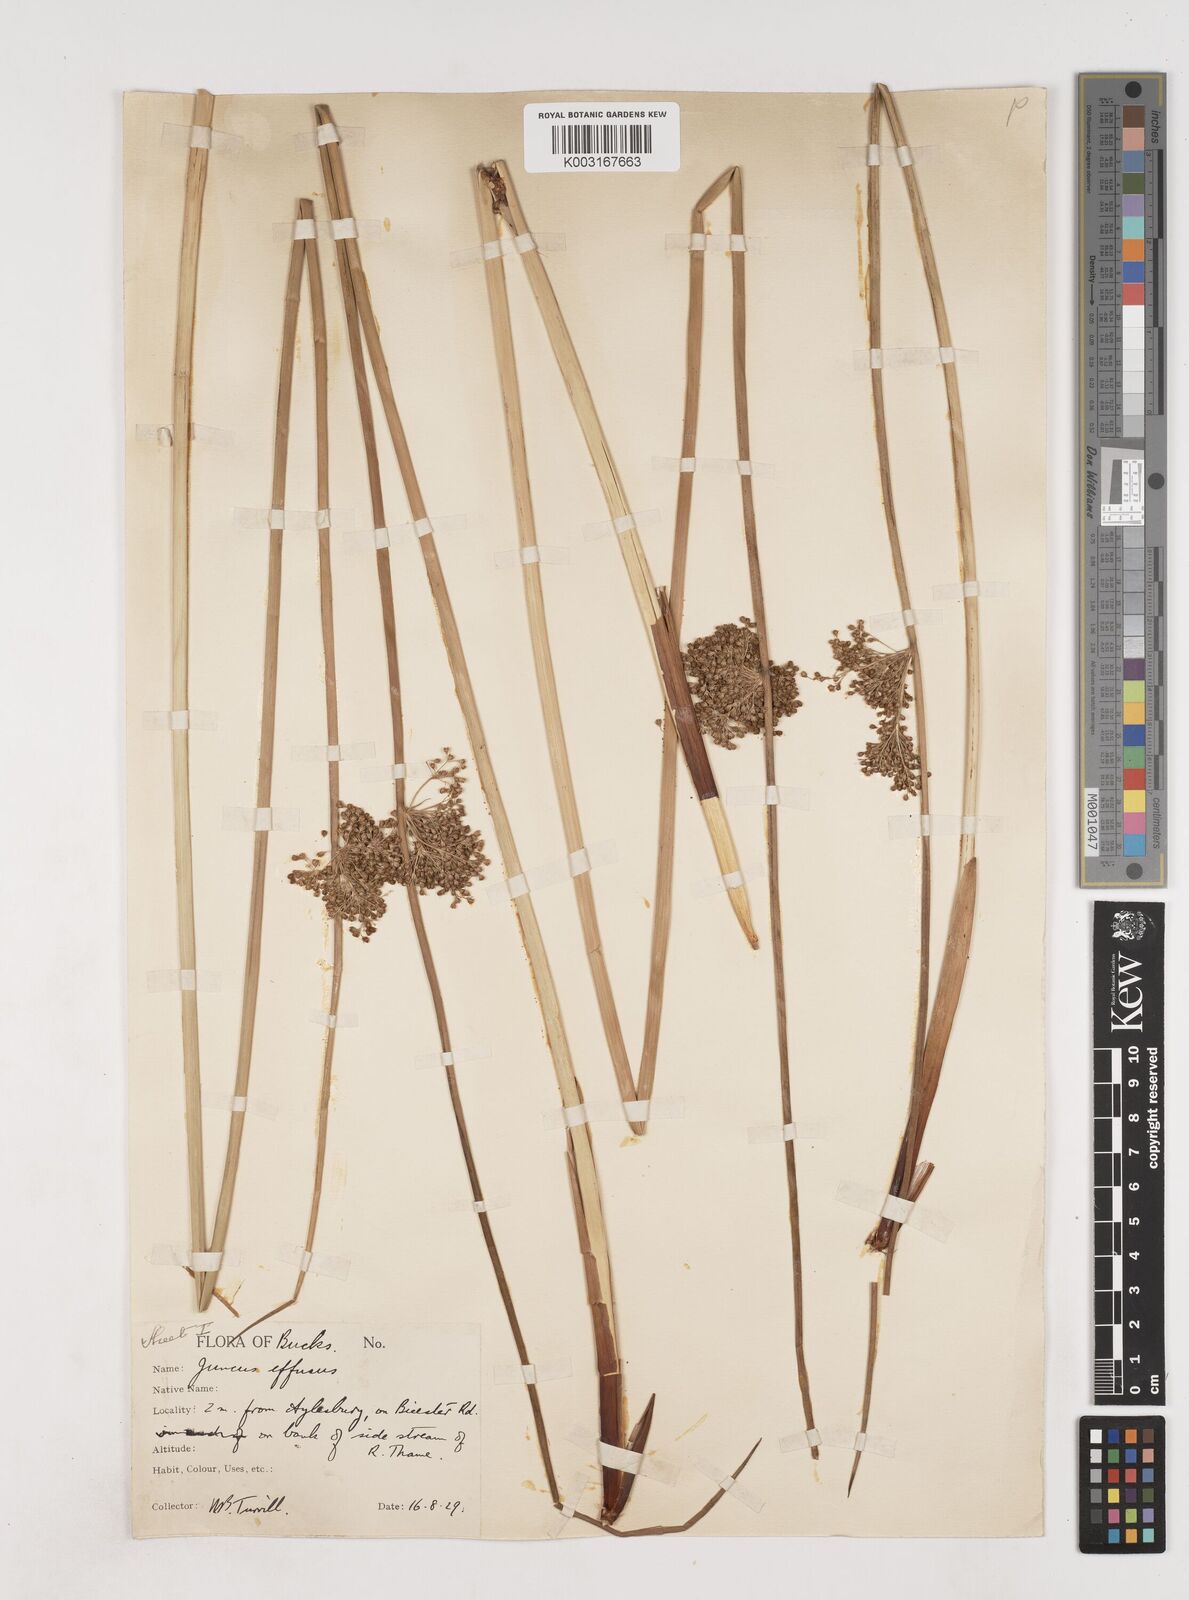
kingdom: Plantae
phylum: Tracheophyta
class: Liliopsida
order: Poales
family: Juncaceae
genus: Juncus
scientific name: Juncus effusus
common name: Soft rush
